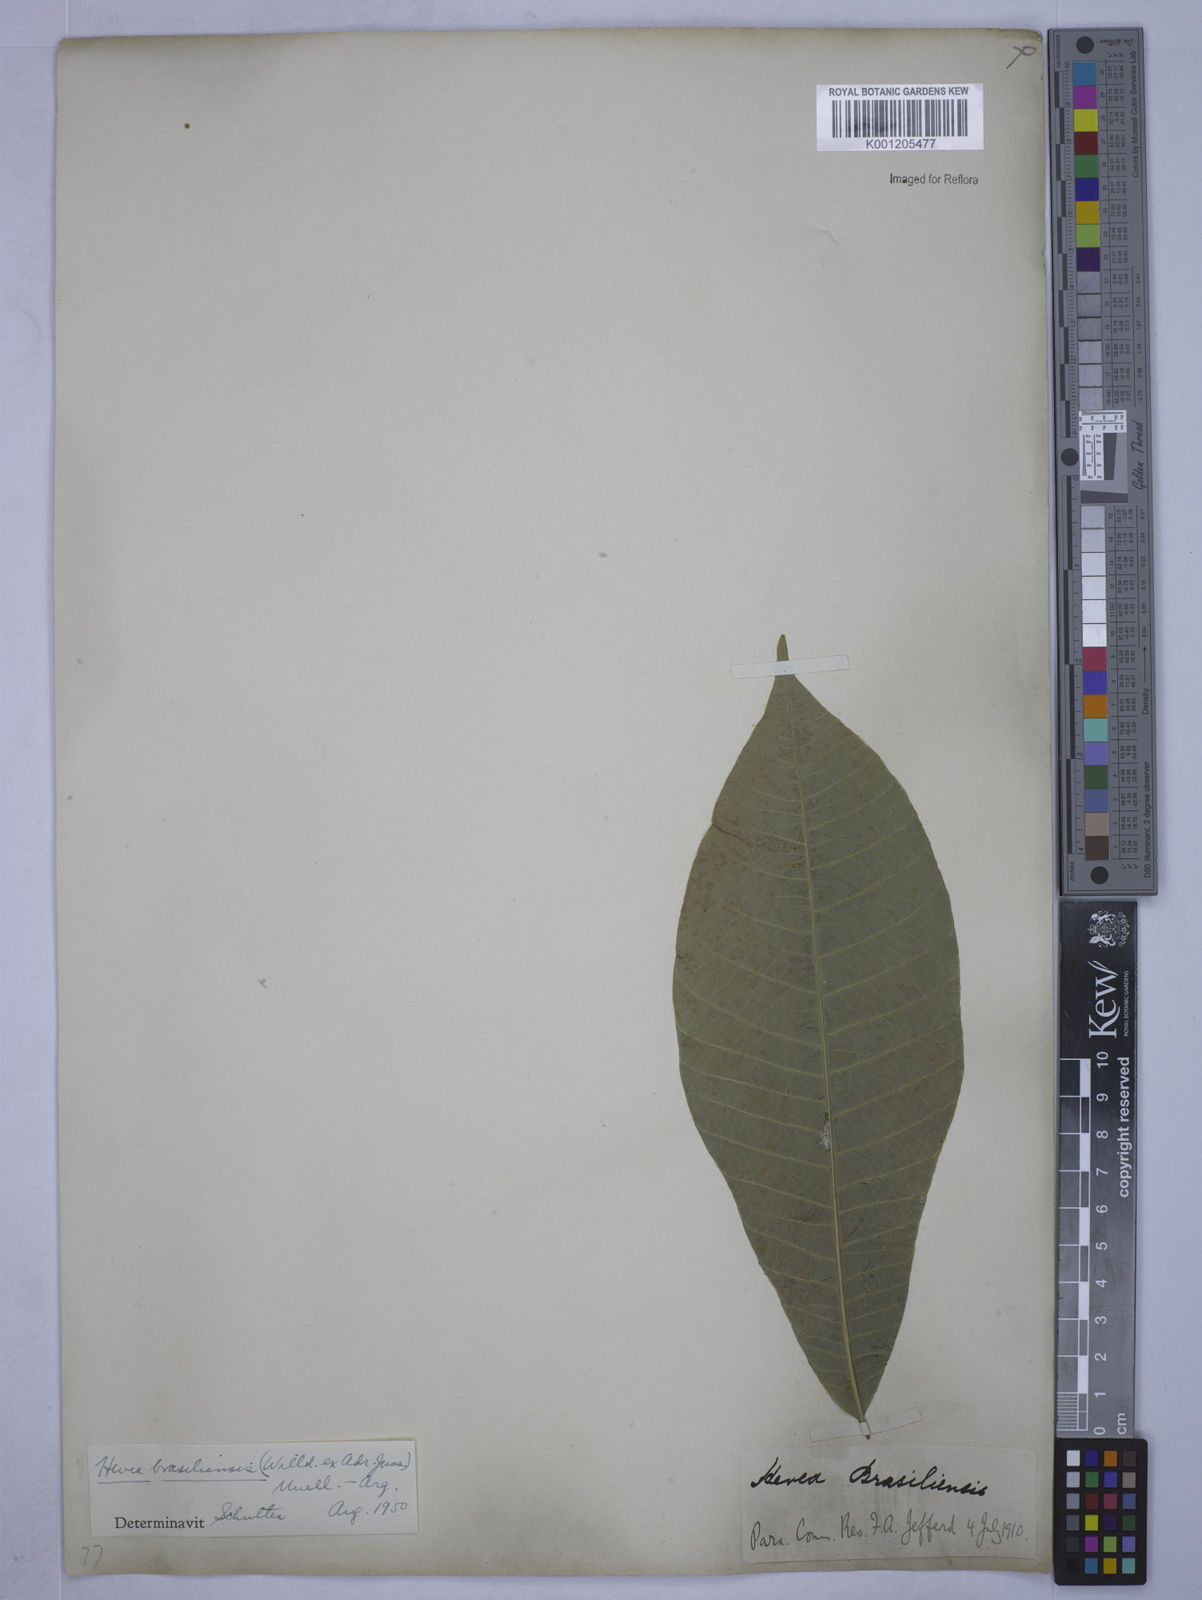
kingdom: Plantae
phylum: Tracheophyta
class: Magnoliopsida
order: Malpighiales
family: Euphorbiaceae
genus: Hevea
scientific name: Hevea
